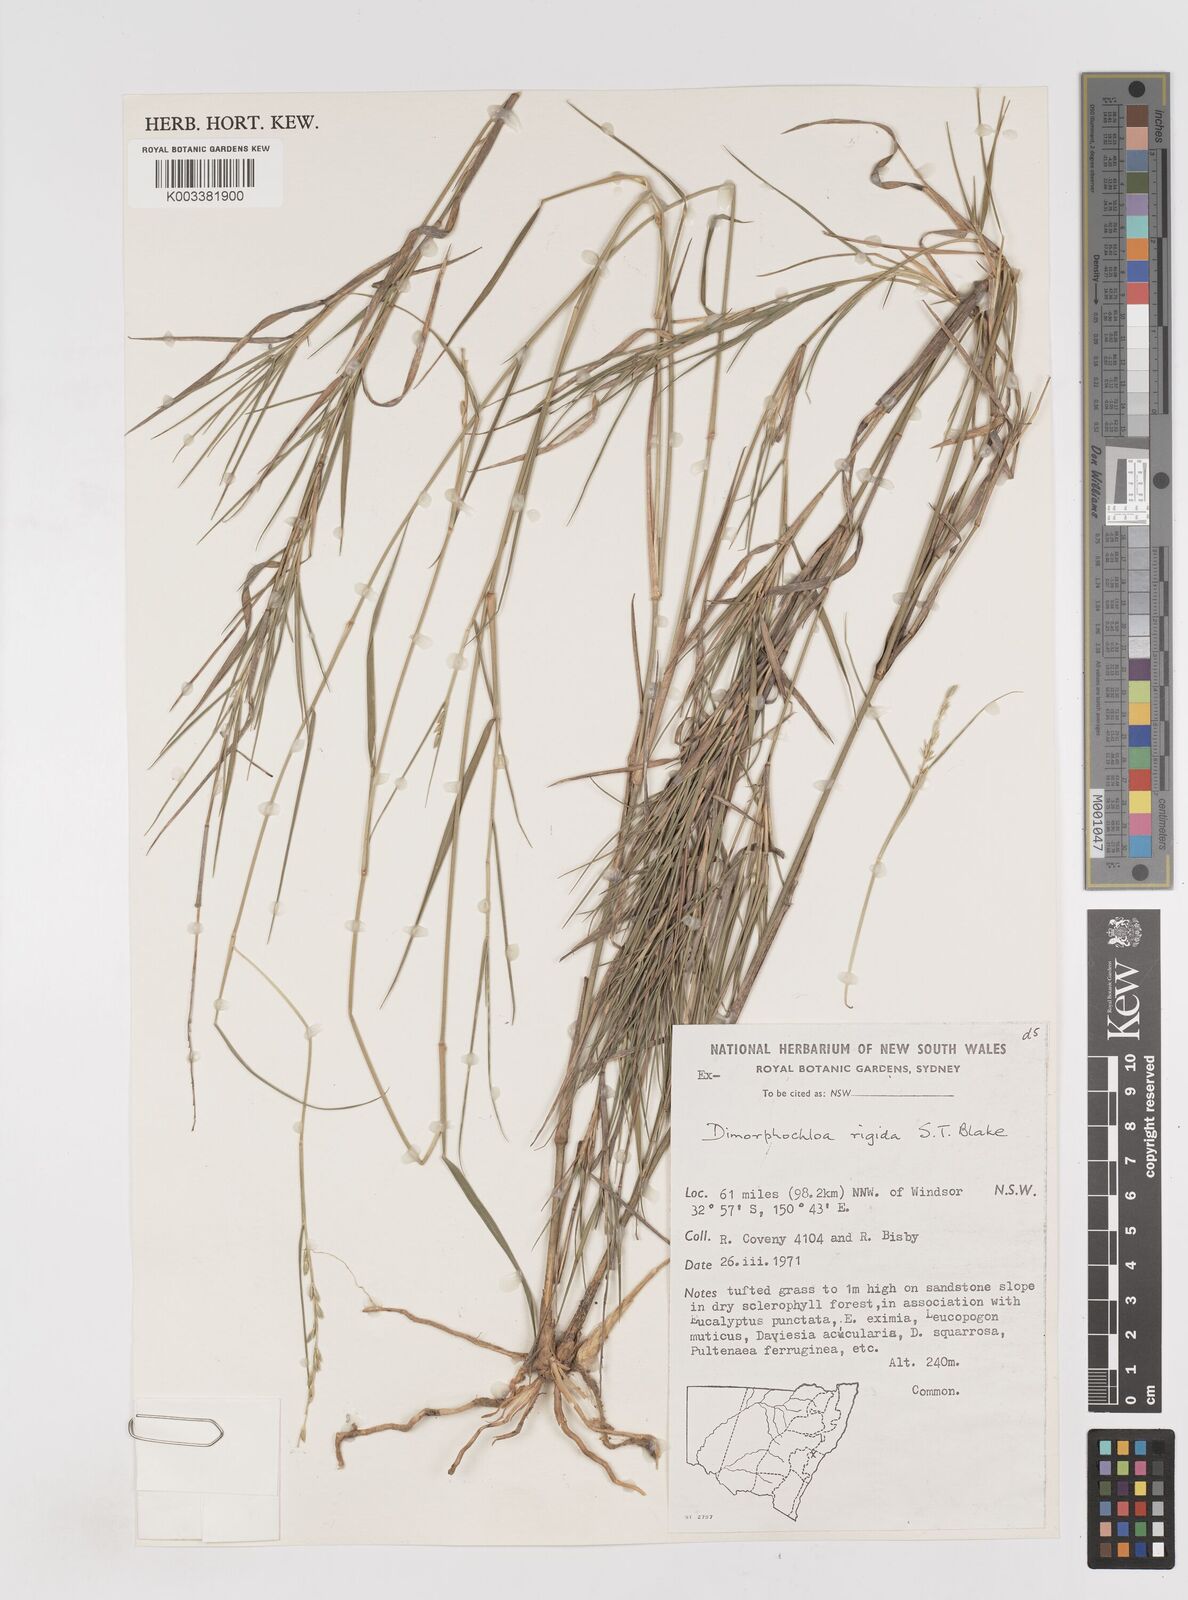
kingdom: Plantae
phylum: Tracheophyta
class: Liliopsida
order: Poales
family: Poaceae
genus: Dimorphochloa
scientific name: Dimorphochloa rigida
